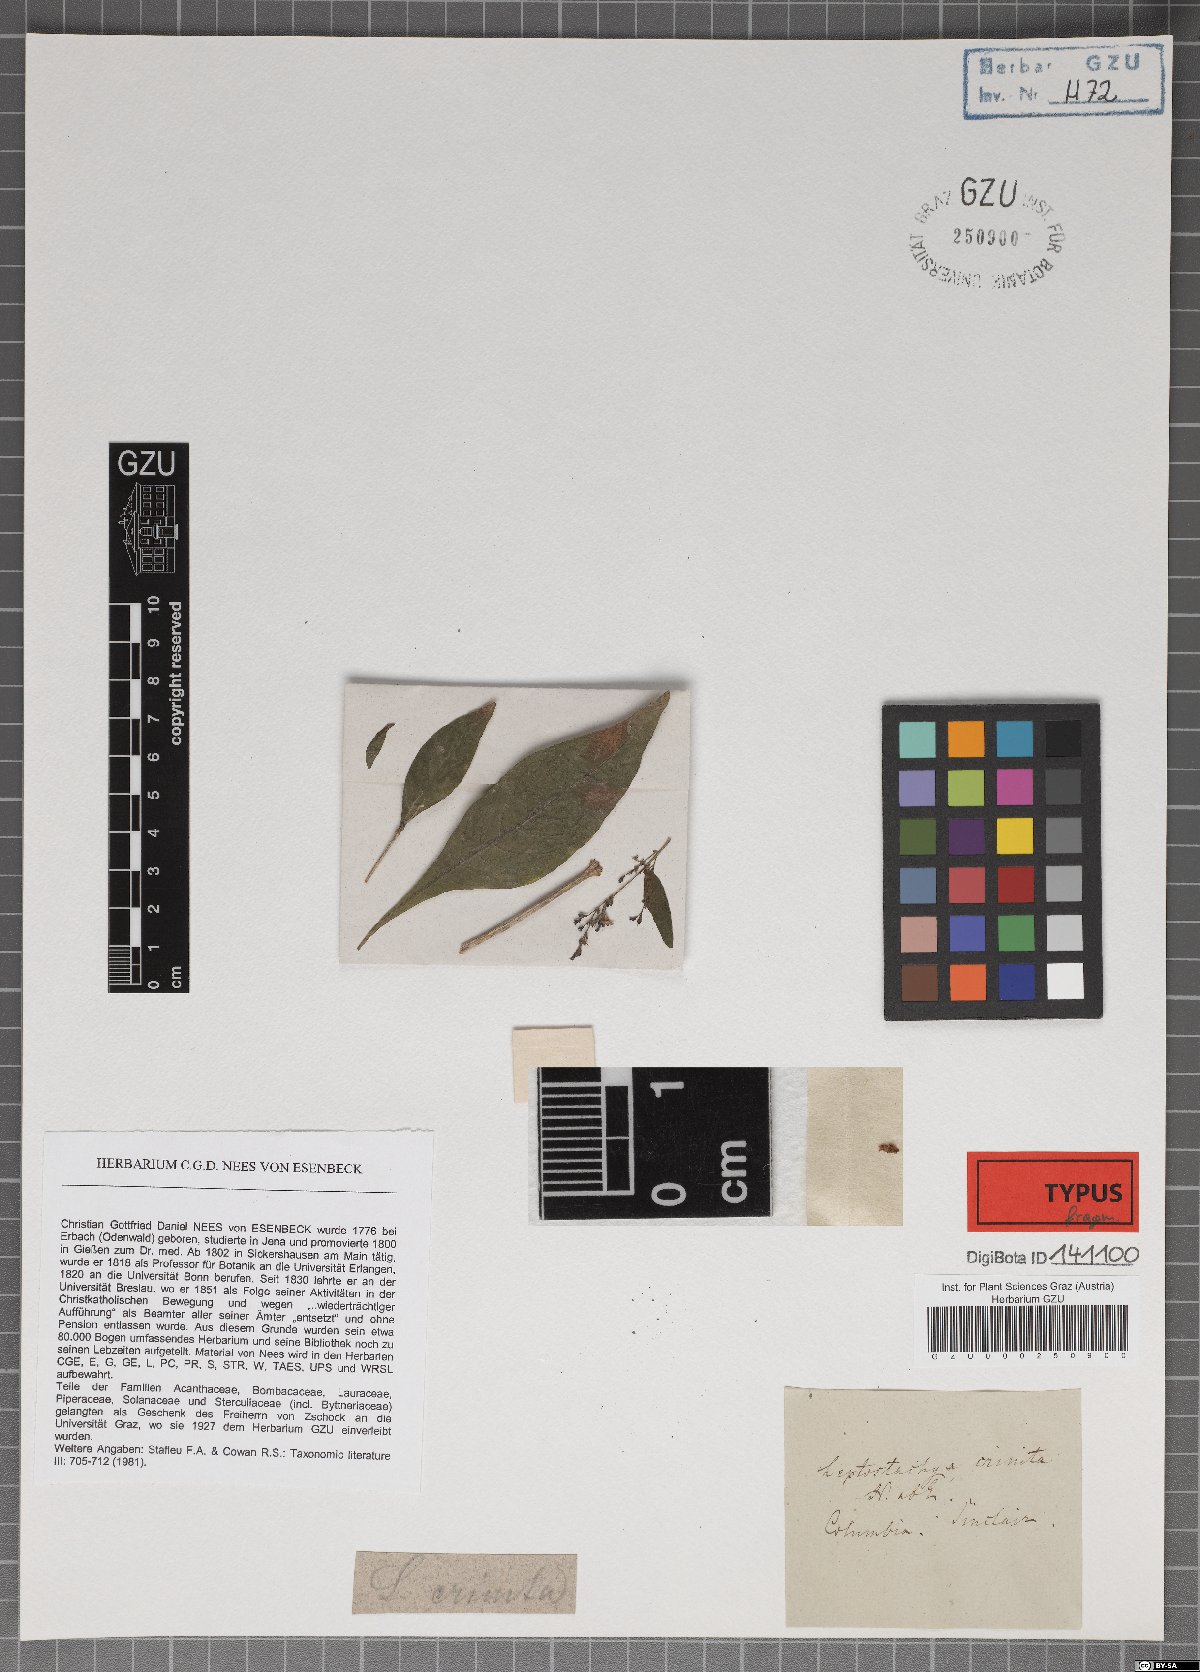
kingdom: Plantae
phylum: Tracheophyta
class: Magnoliopsida
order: Lamiales
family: Acanthaceae
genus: Leptostachya
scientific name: Leptostachya crinita
